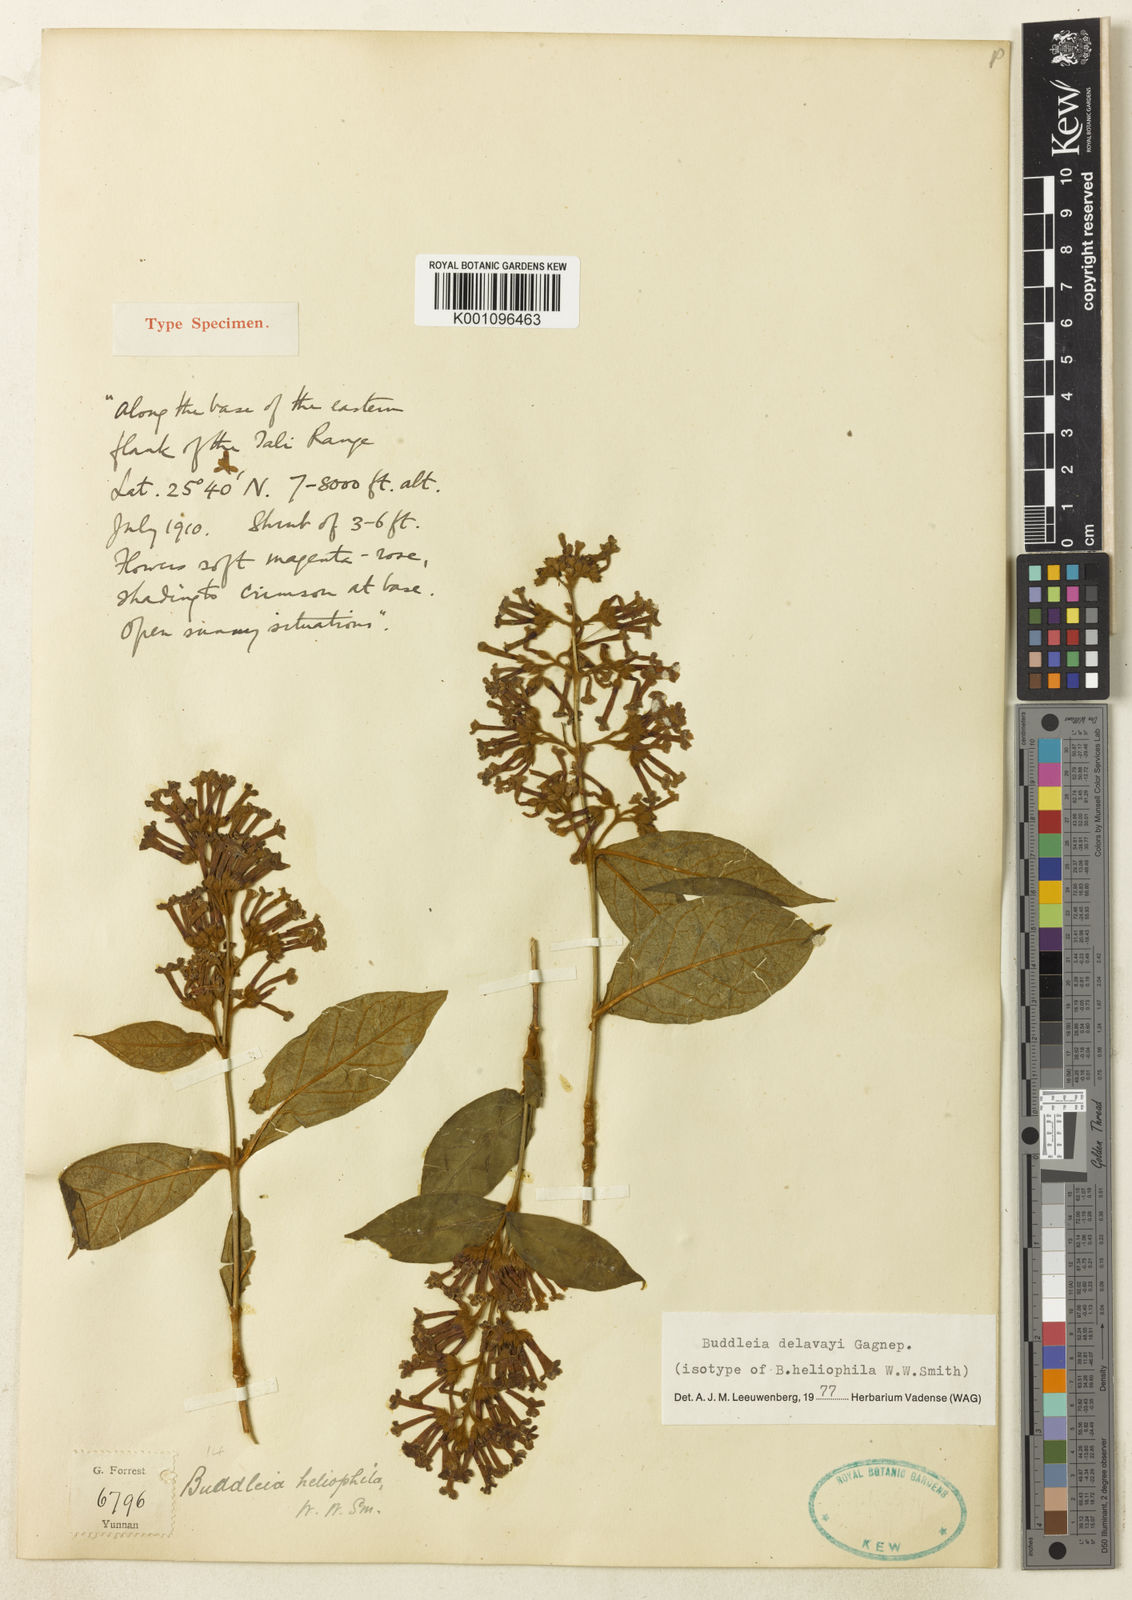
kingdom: Plantae
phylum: Tracheophyta
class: Magnoliopsida
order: Lamiales
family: Scrophulariaceae
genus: Buddleja
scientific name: Buddleja delavayi
